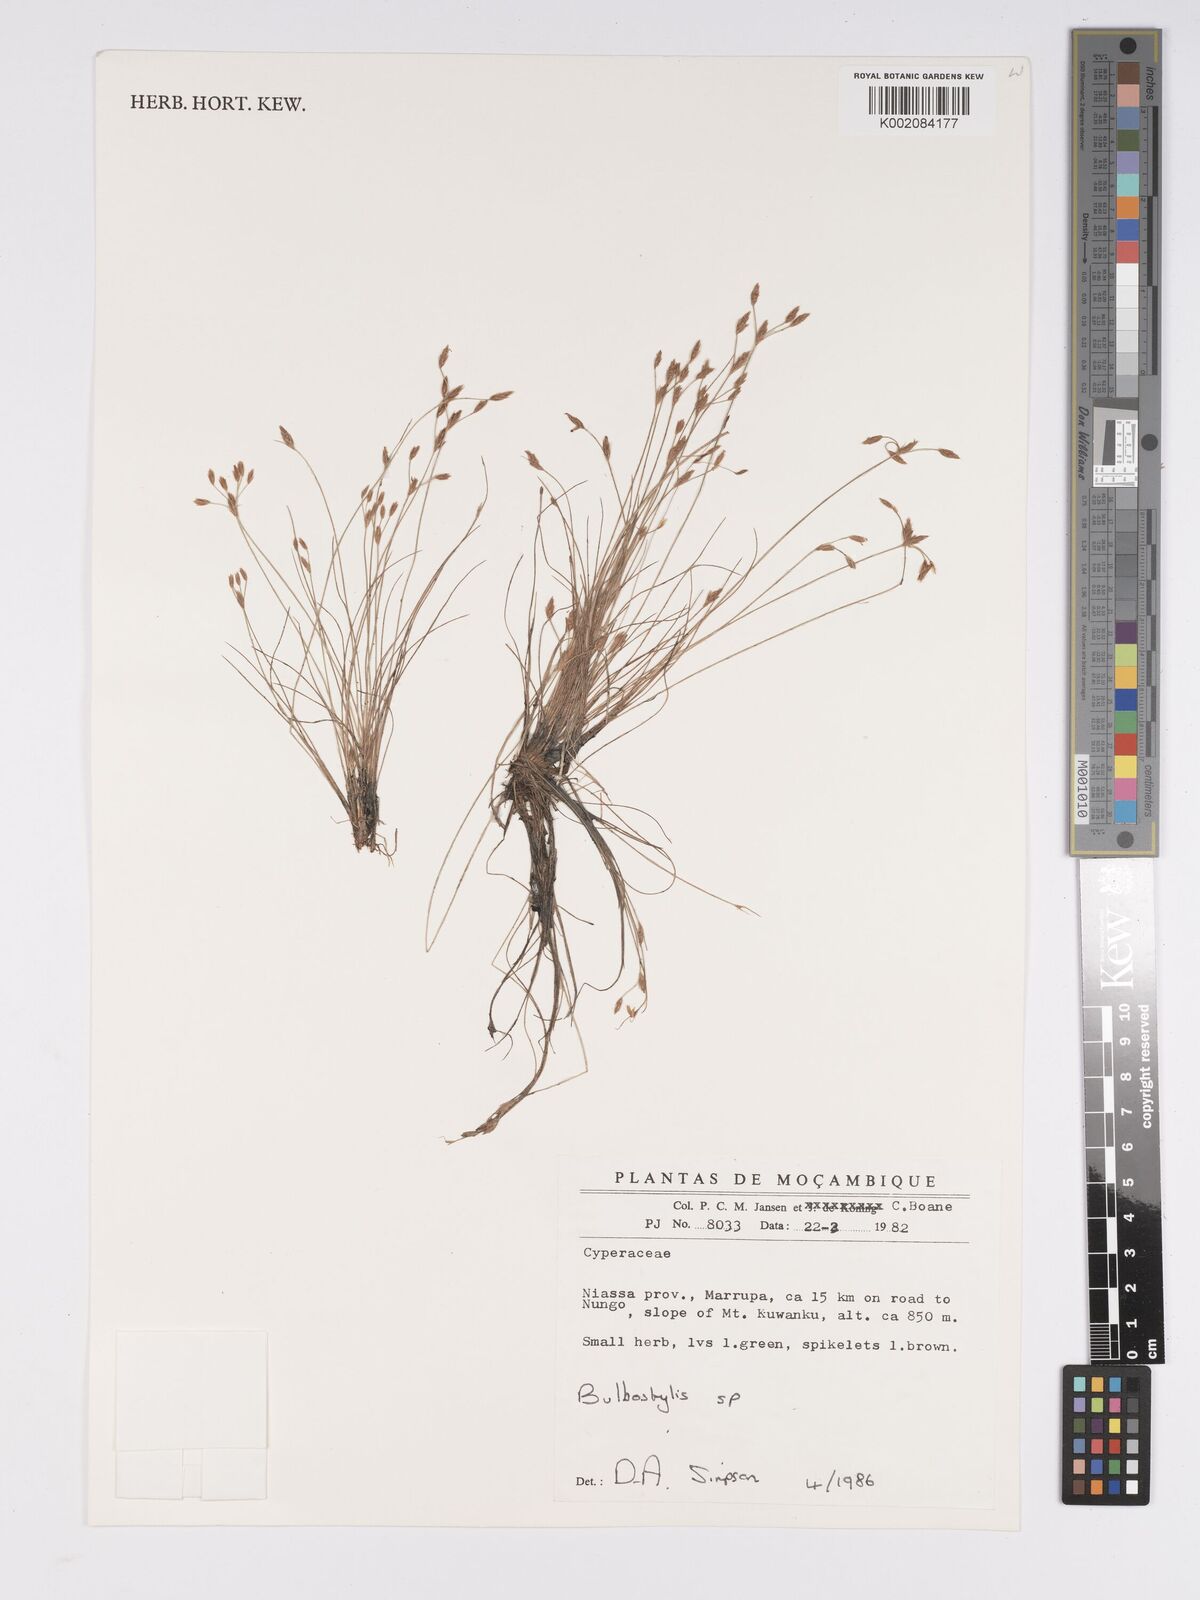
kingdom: Plantae
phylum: Tracheophyta
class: Liliopsida
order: Poales
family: Cyperaceae
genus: Bulbostylis
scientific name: Bulbostylis
